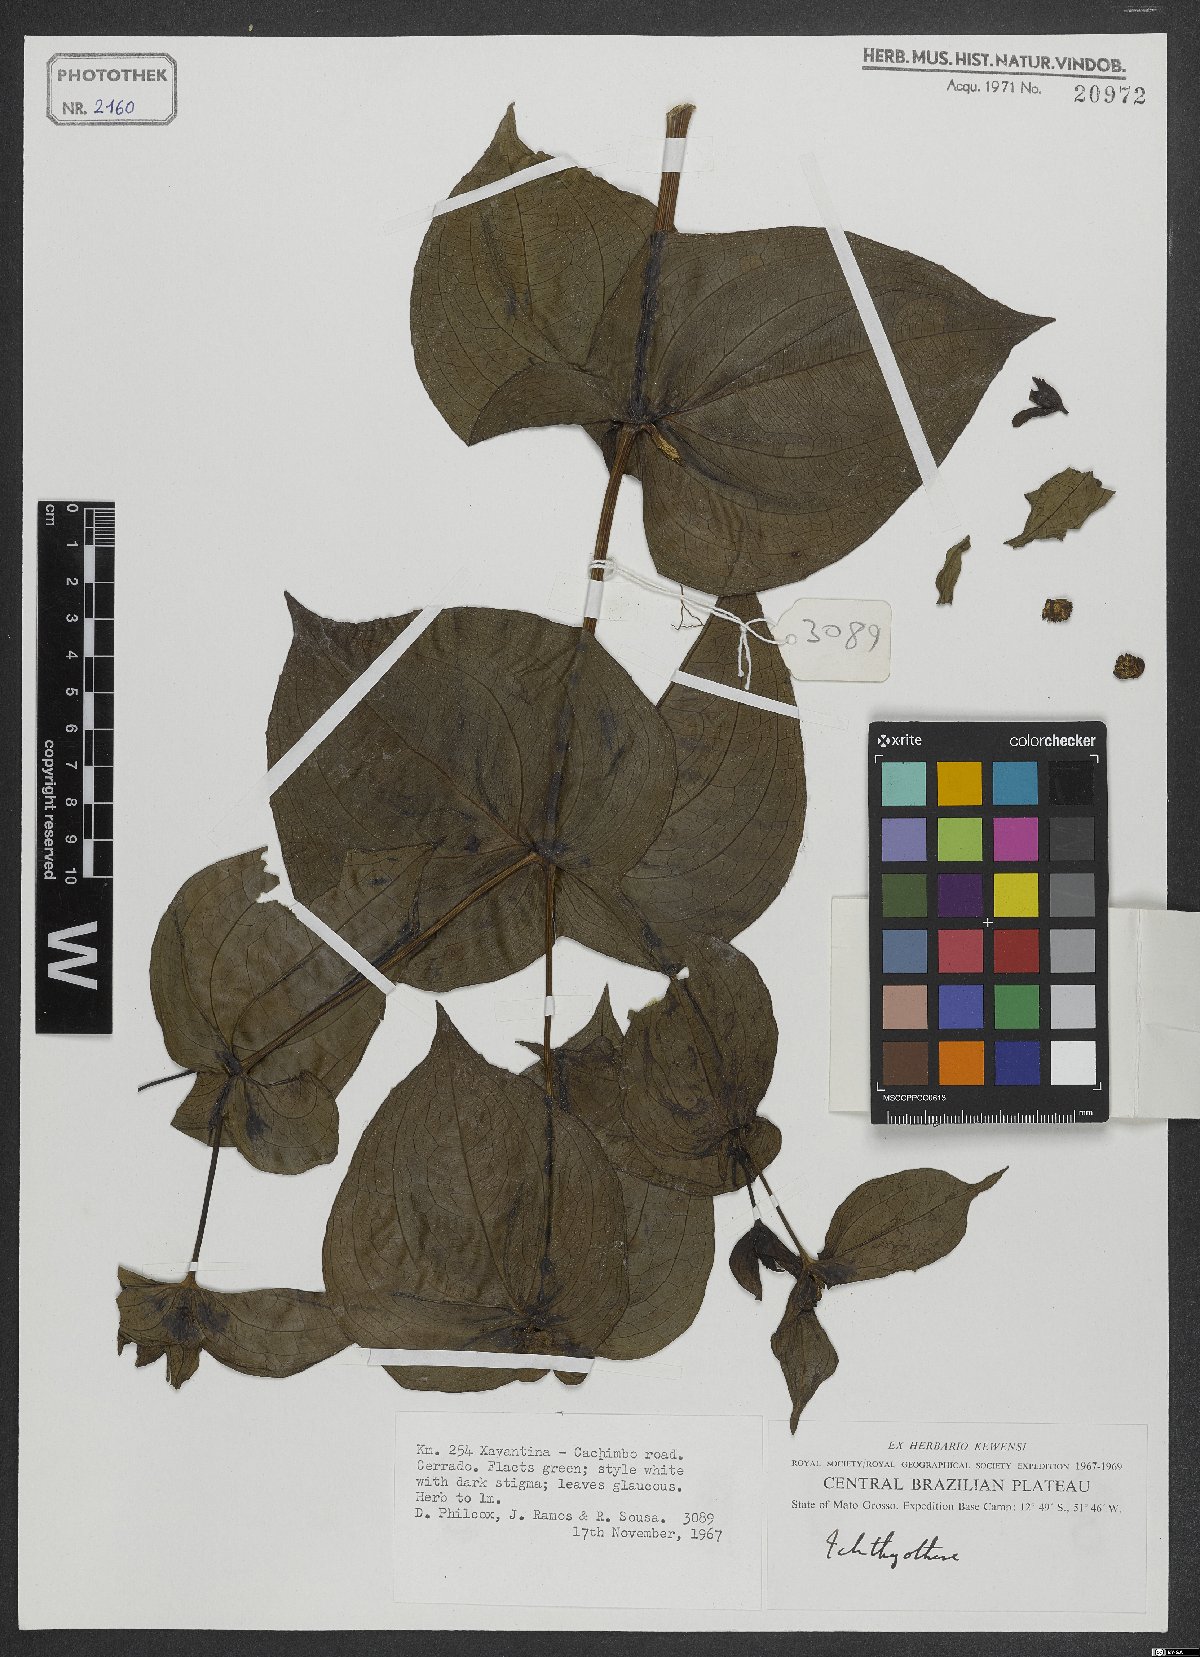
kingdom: Plantae
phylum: Tracheophyta
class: Magnoliopsida
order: Asterales
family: Asteraceae
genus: Ichthyothere
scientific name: Ichthyothere
